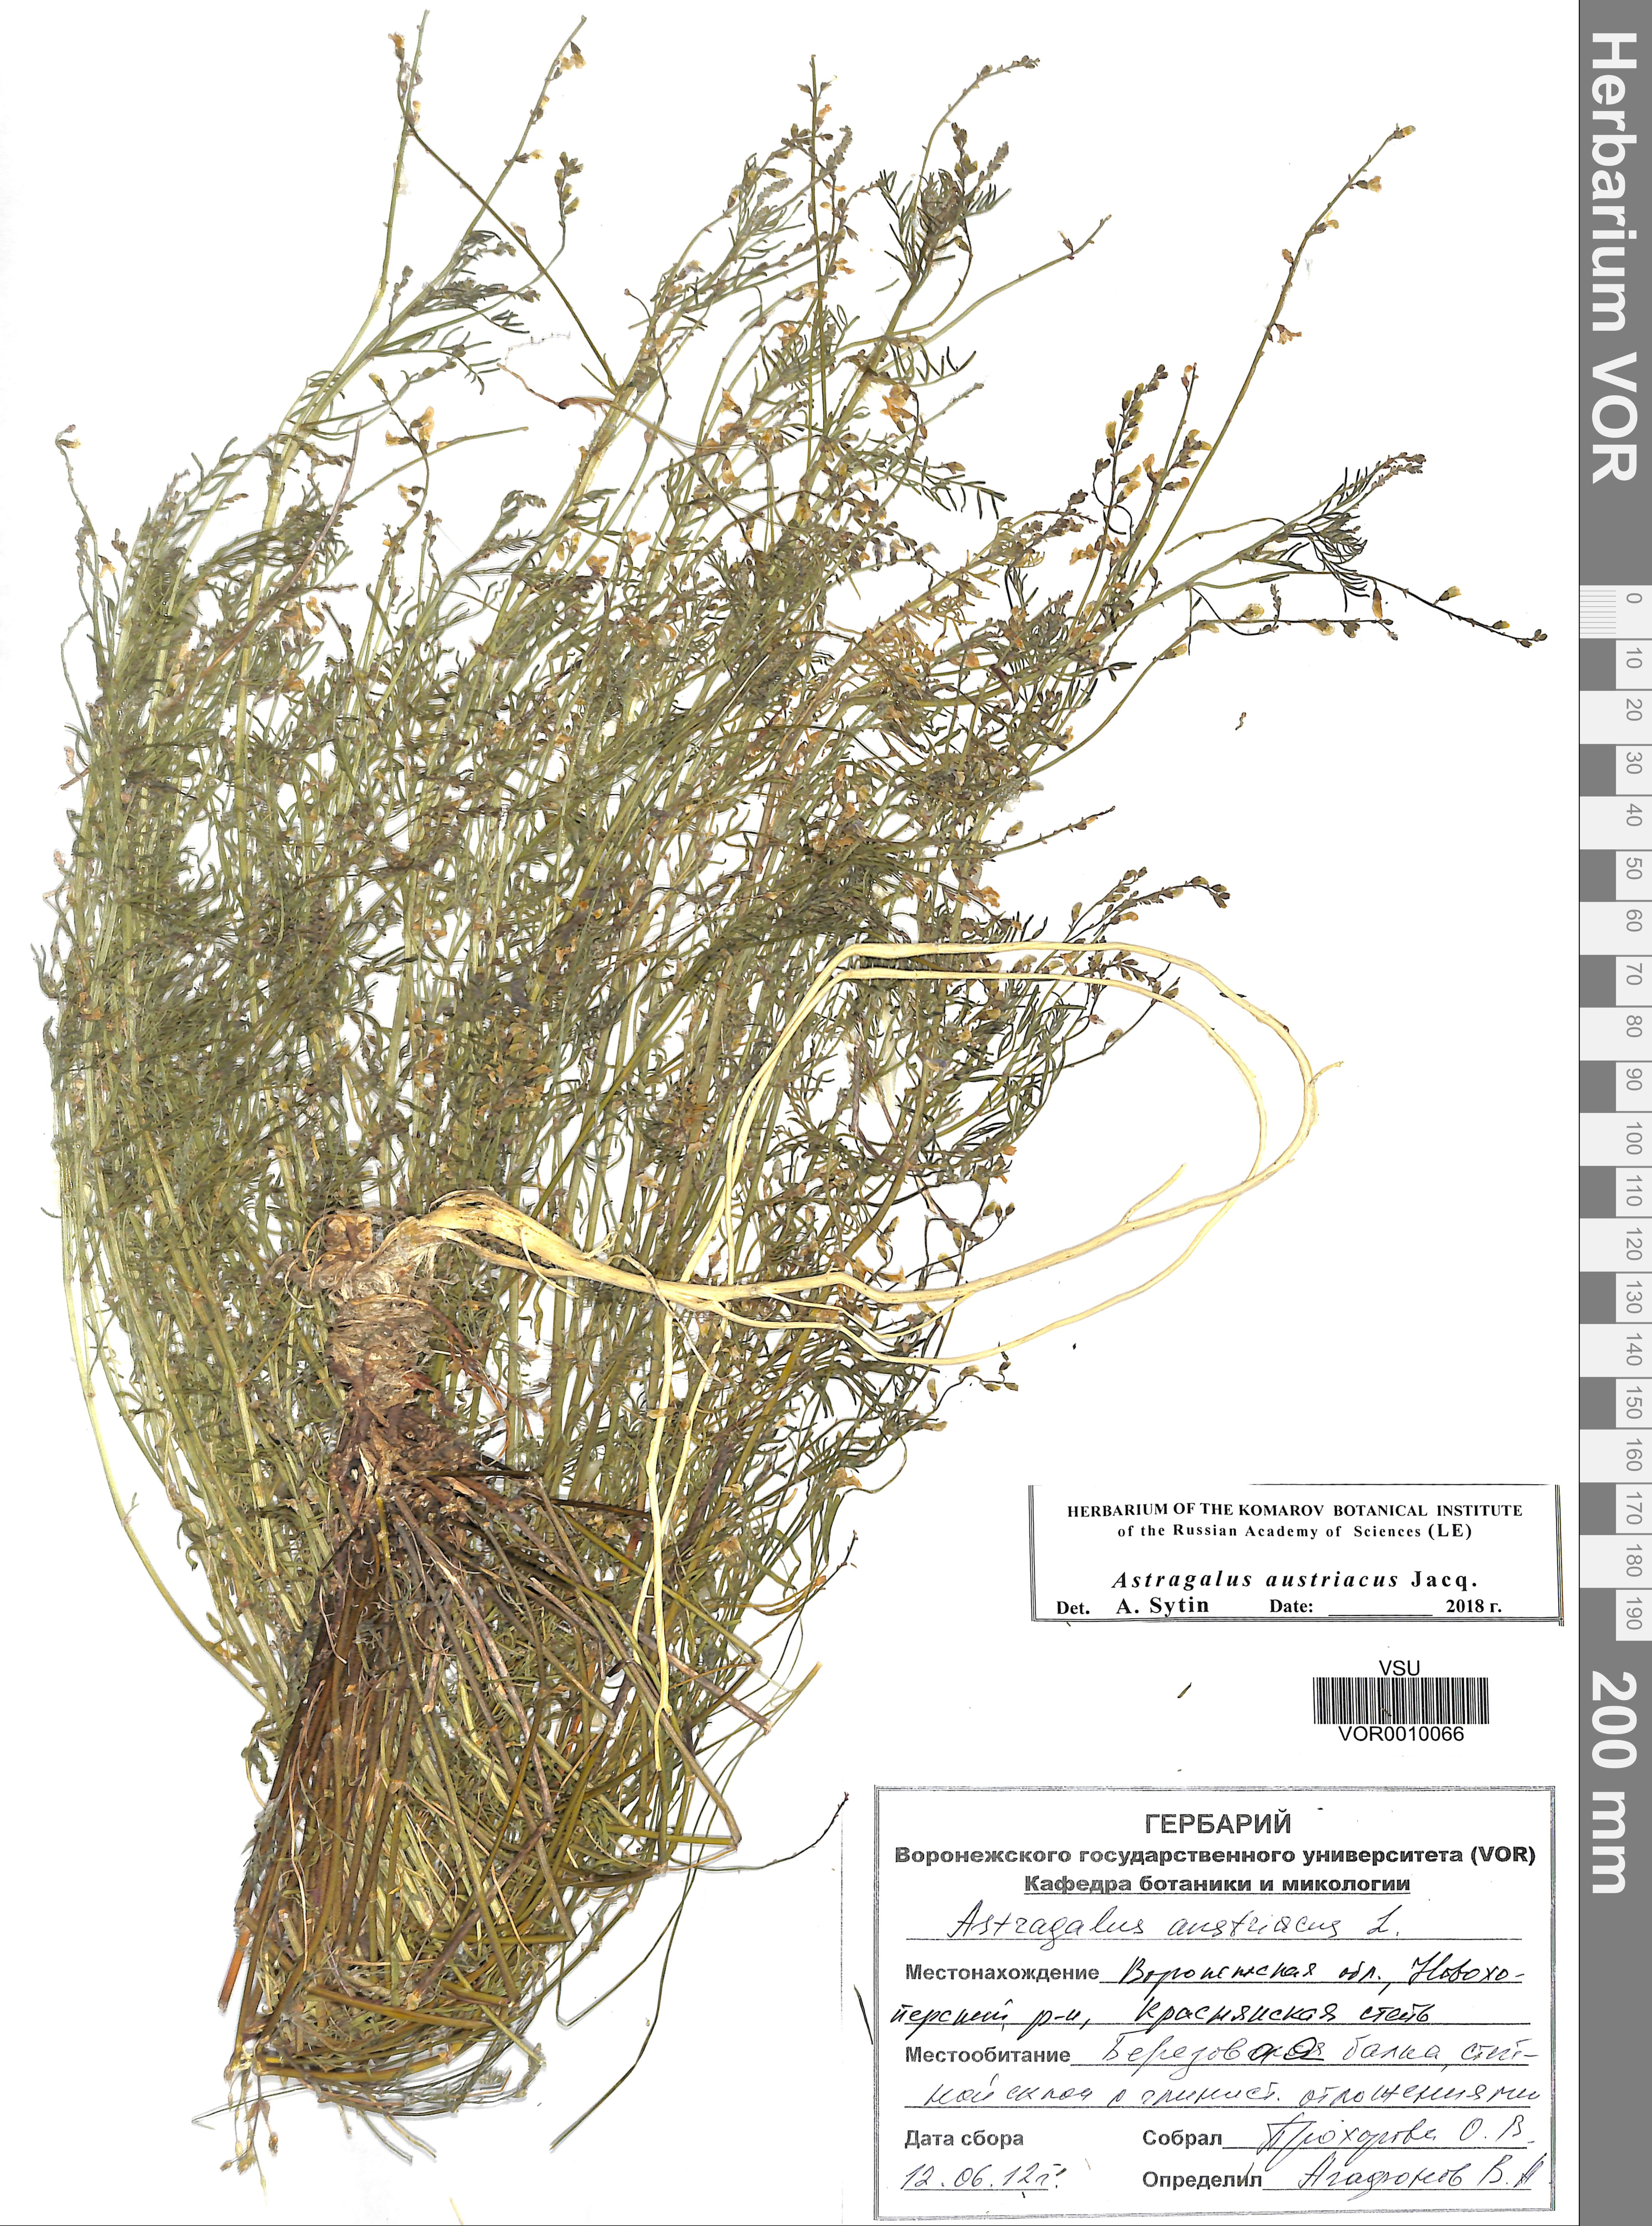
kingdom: Plantae
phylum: Tracheophyta
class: Magnoliopsida
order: Fabales
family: Fabaceae
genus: Astragalus
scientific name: Astragalus austriacus
